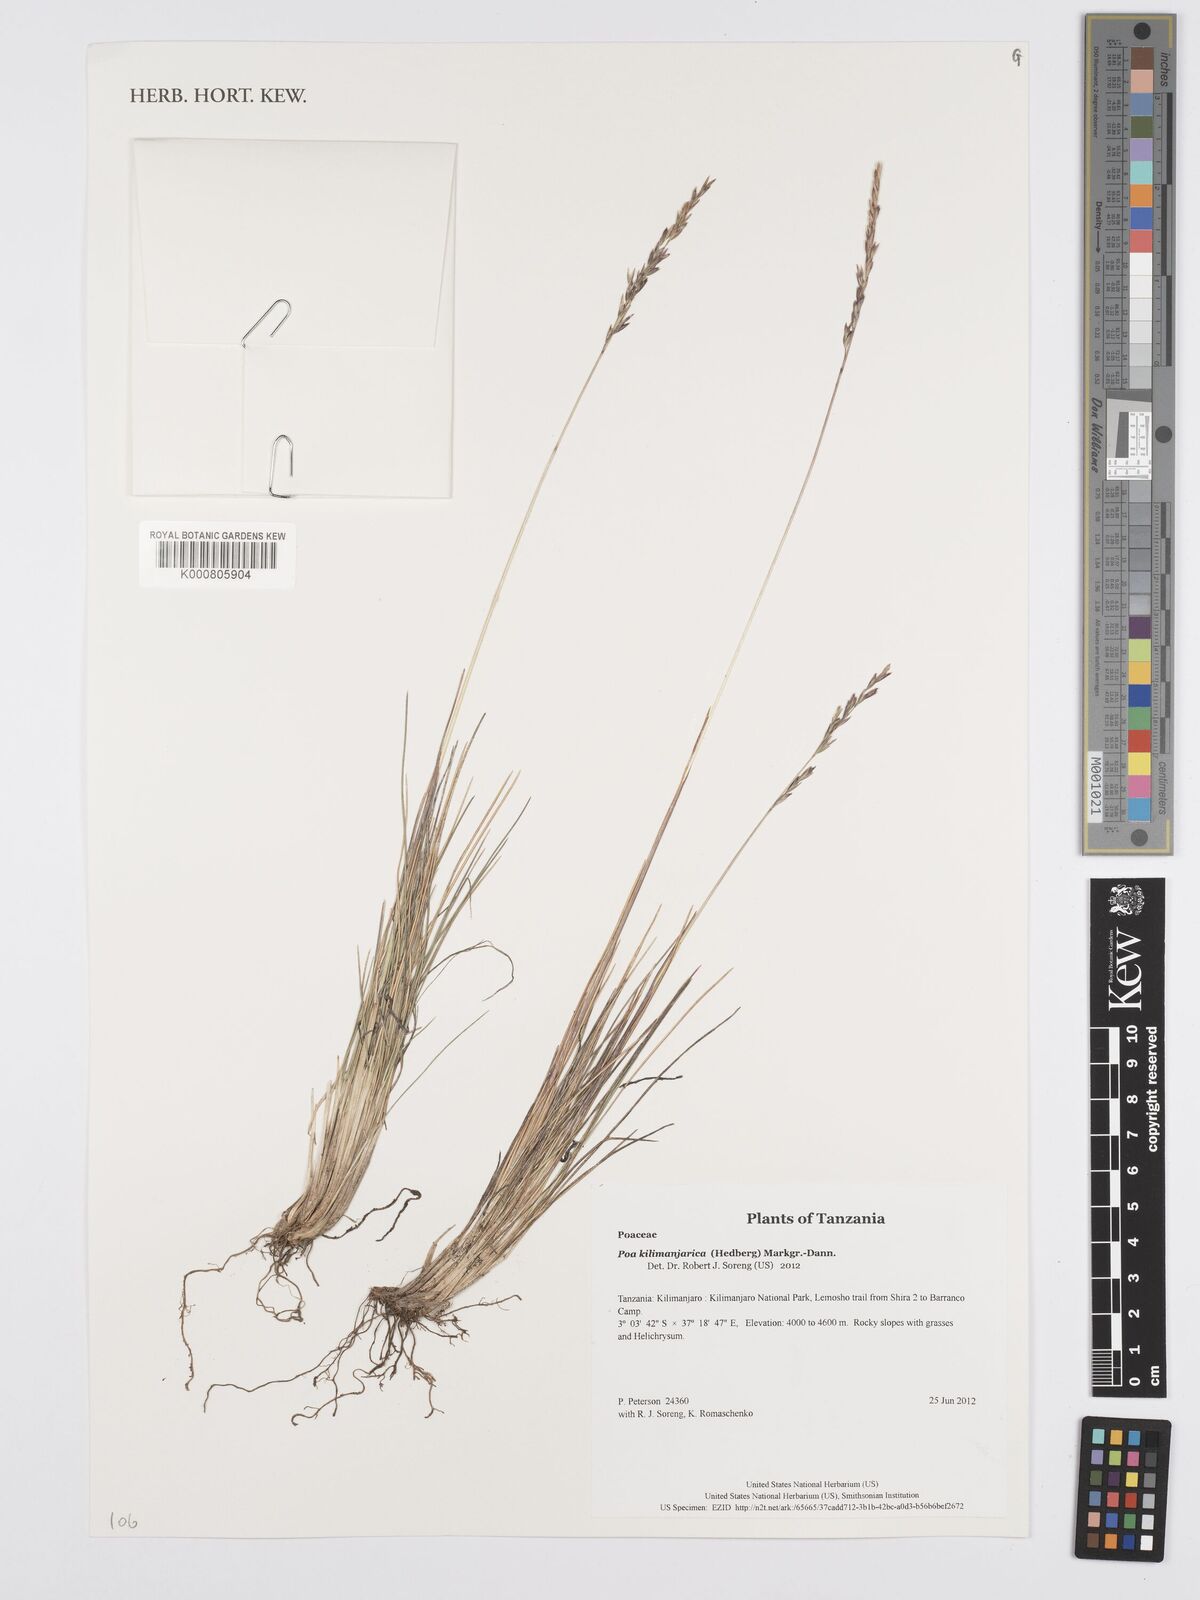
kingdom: Plantae
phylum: Tracheophyta
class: Liliopsida
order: Poales
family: Poaceae
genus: Poa
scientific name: Poa kilimanjarica
